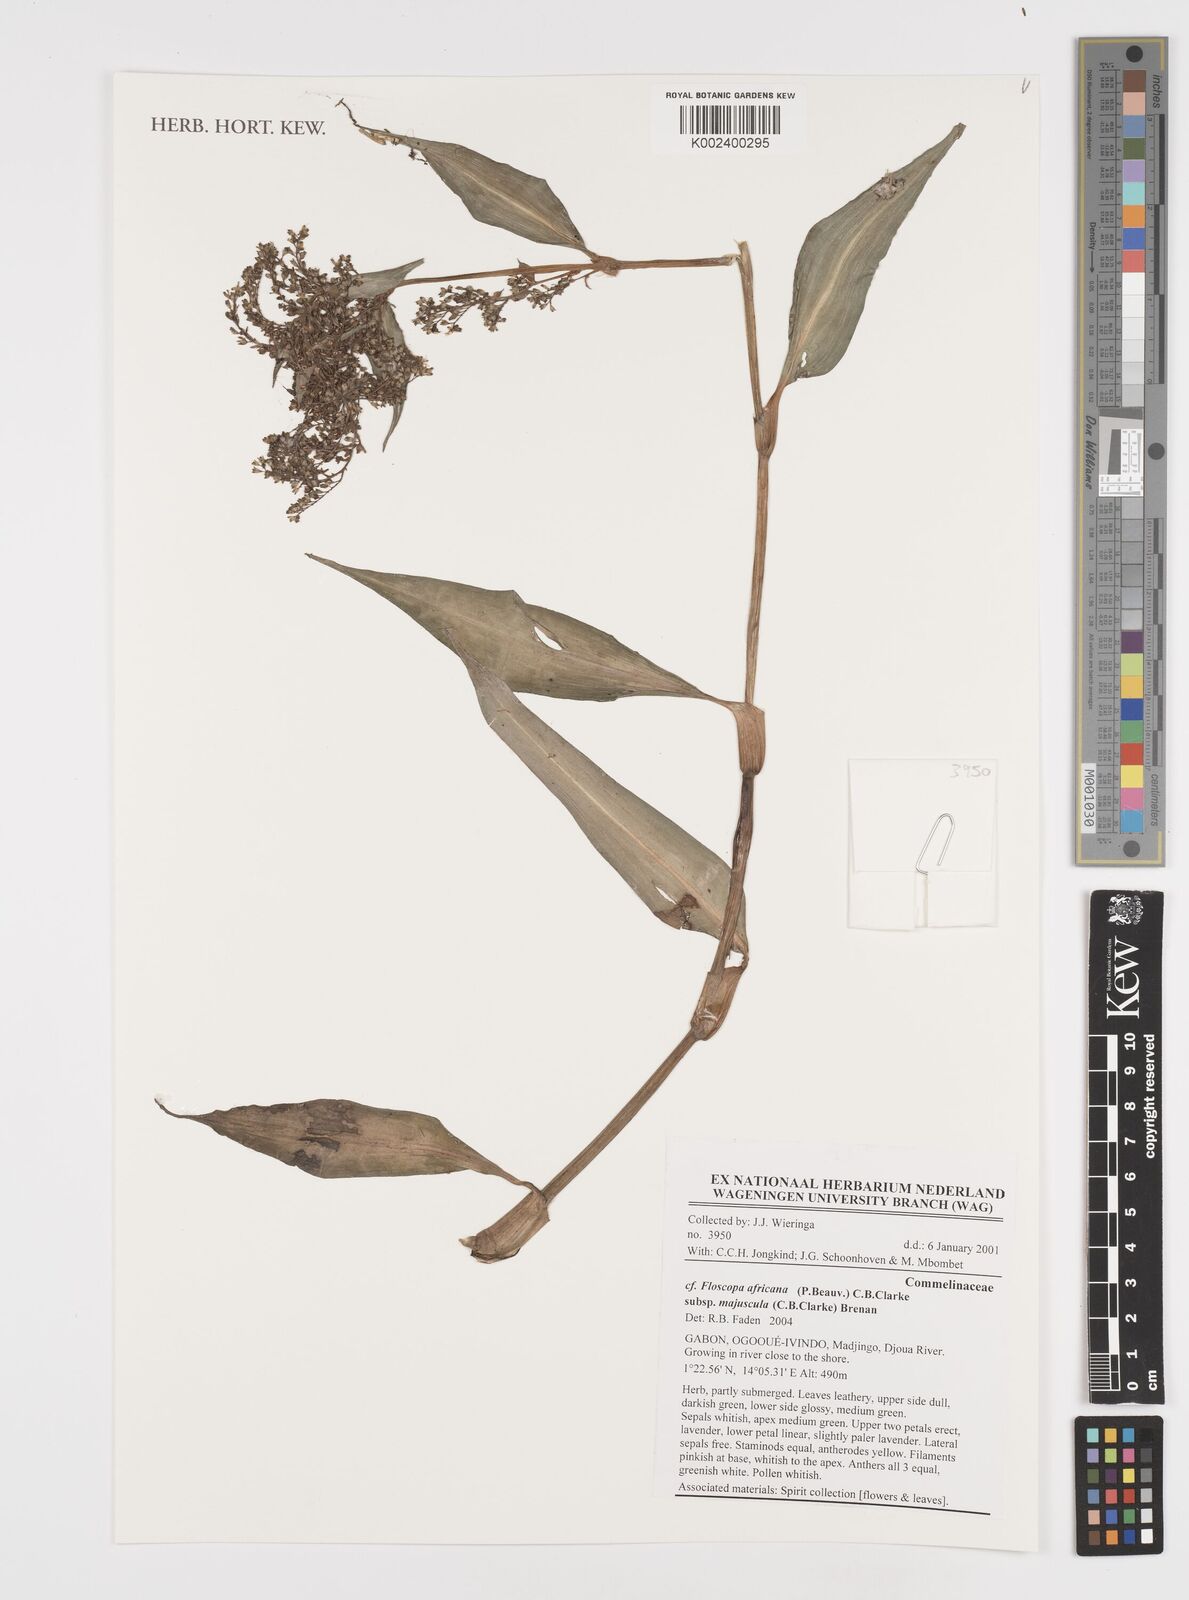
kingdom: Plantae
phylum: Tracheophyta
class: Liliopsida
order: Commelinales
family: Commelinaceae
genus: Floscopa
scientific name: Floscopa africana
